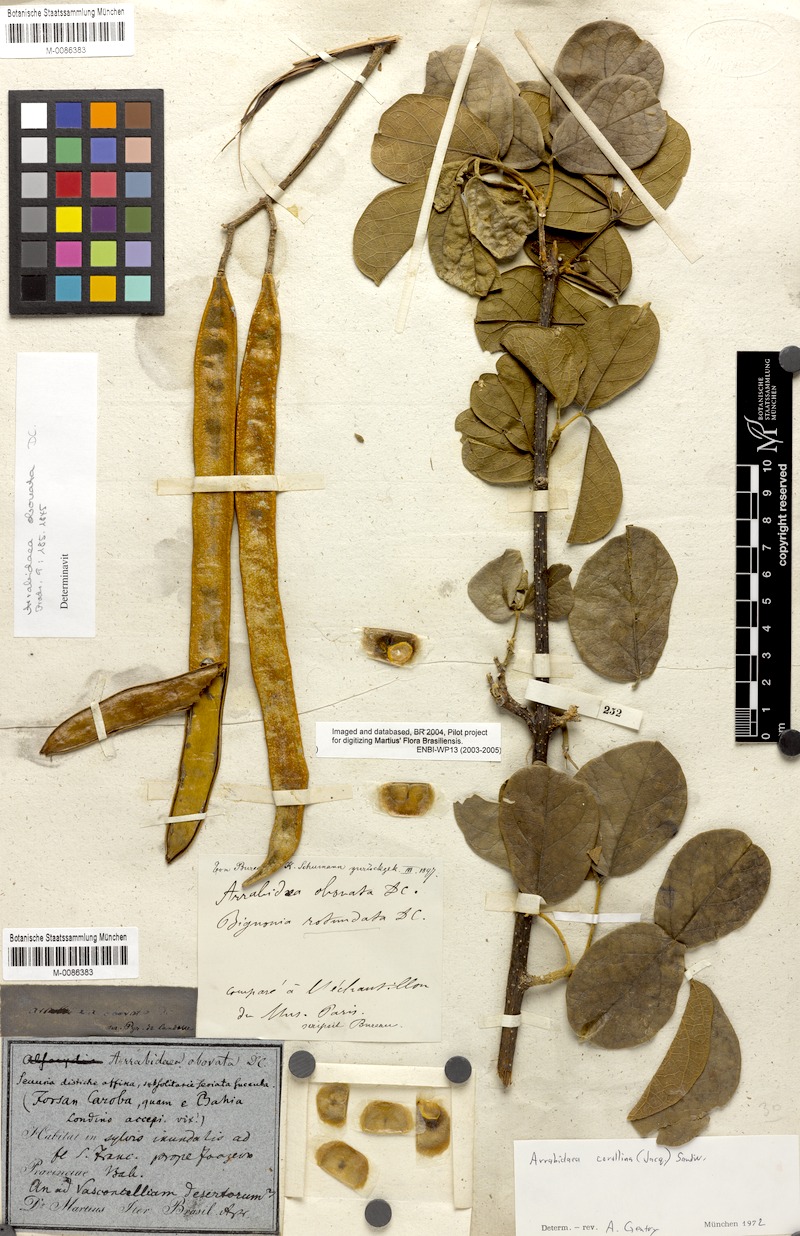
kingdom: Plantae
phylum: Tracheophyta
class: Magnoliopsida
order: Lamiales
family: Bignoniaceae
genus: Tanaecium
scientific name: Tanaecium dichotomum
